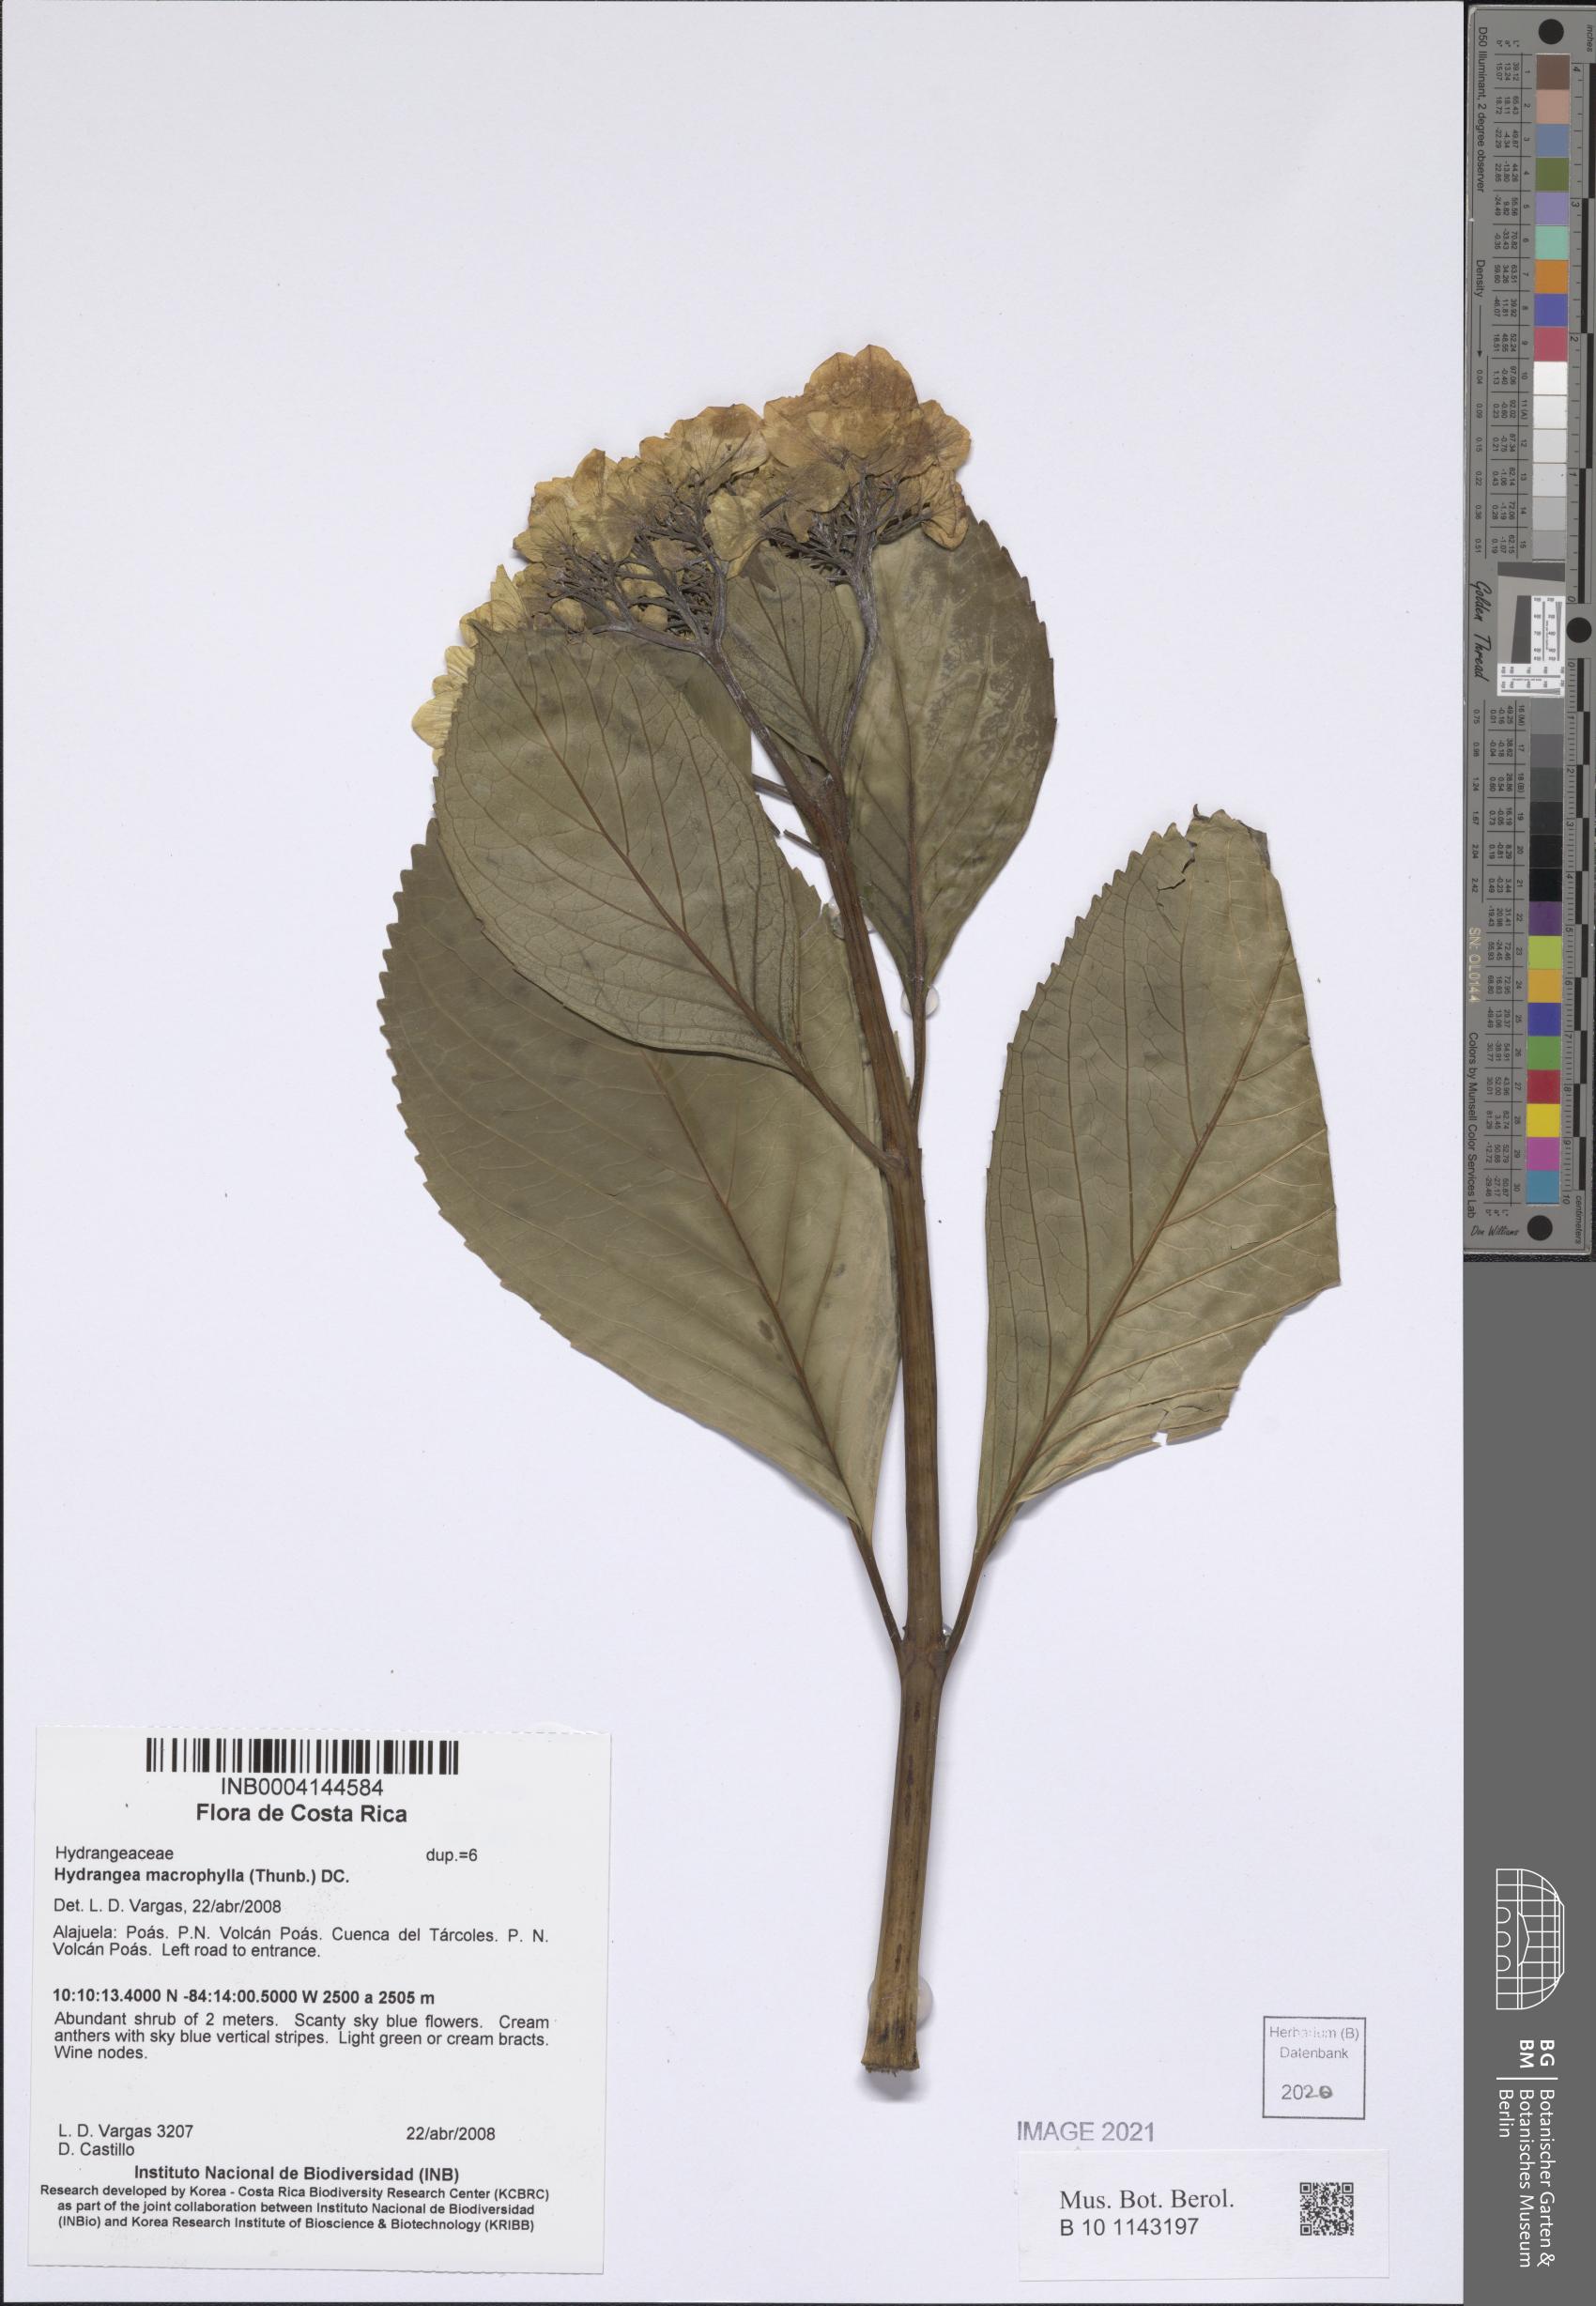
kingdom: Plantae
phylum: Tracheophyta
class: Magnoliopsida
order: Cornales
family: Hydrangeaceae
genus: Hydrangea
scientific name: Hydrangea macrophylla
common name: Hydrangea
